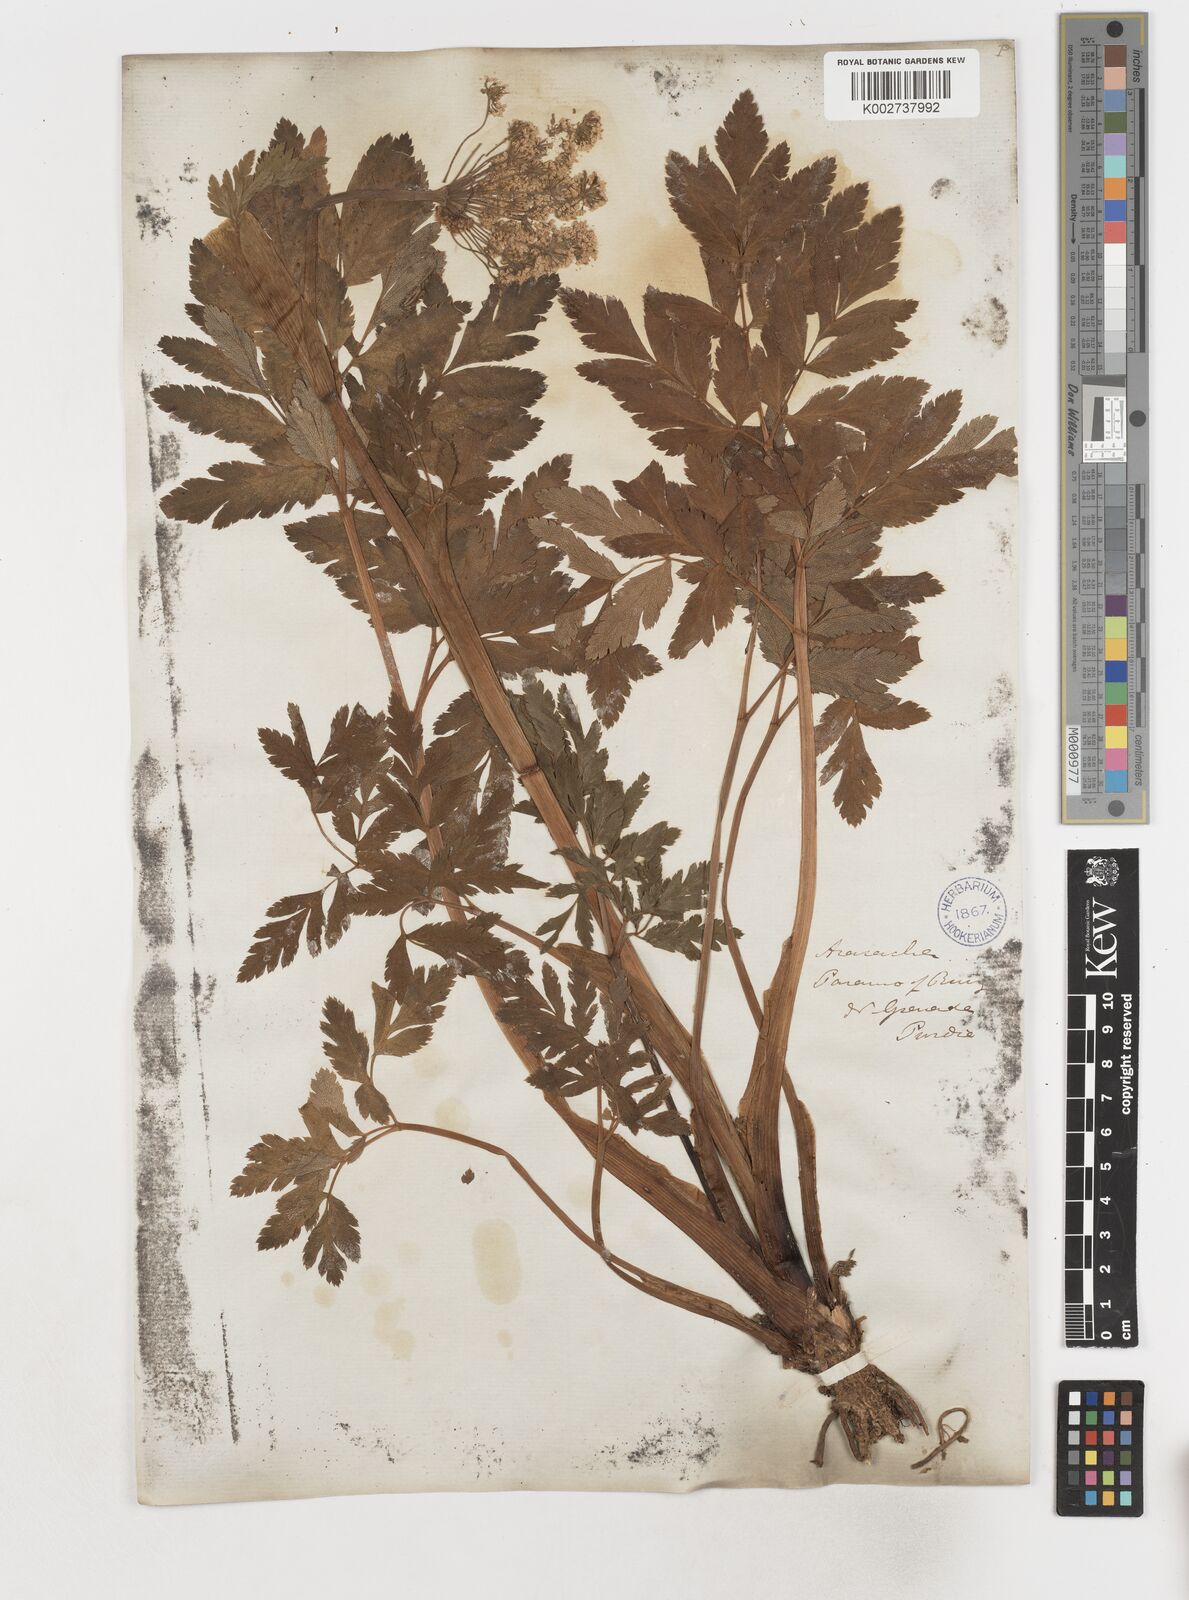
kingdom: Plantae
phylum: Tracheophyta
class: Magnoliopsida
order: Apiales
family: Apiaceae
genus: Myrrhidendron
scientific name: Myrrhidendron glaucescens
